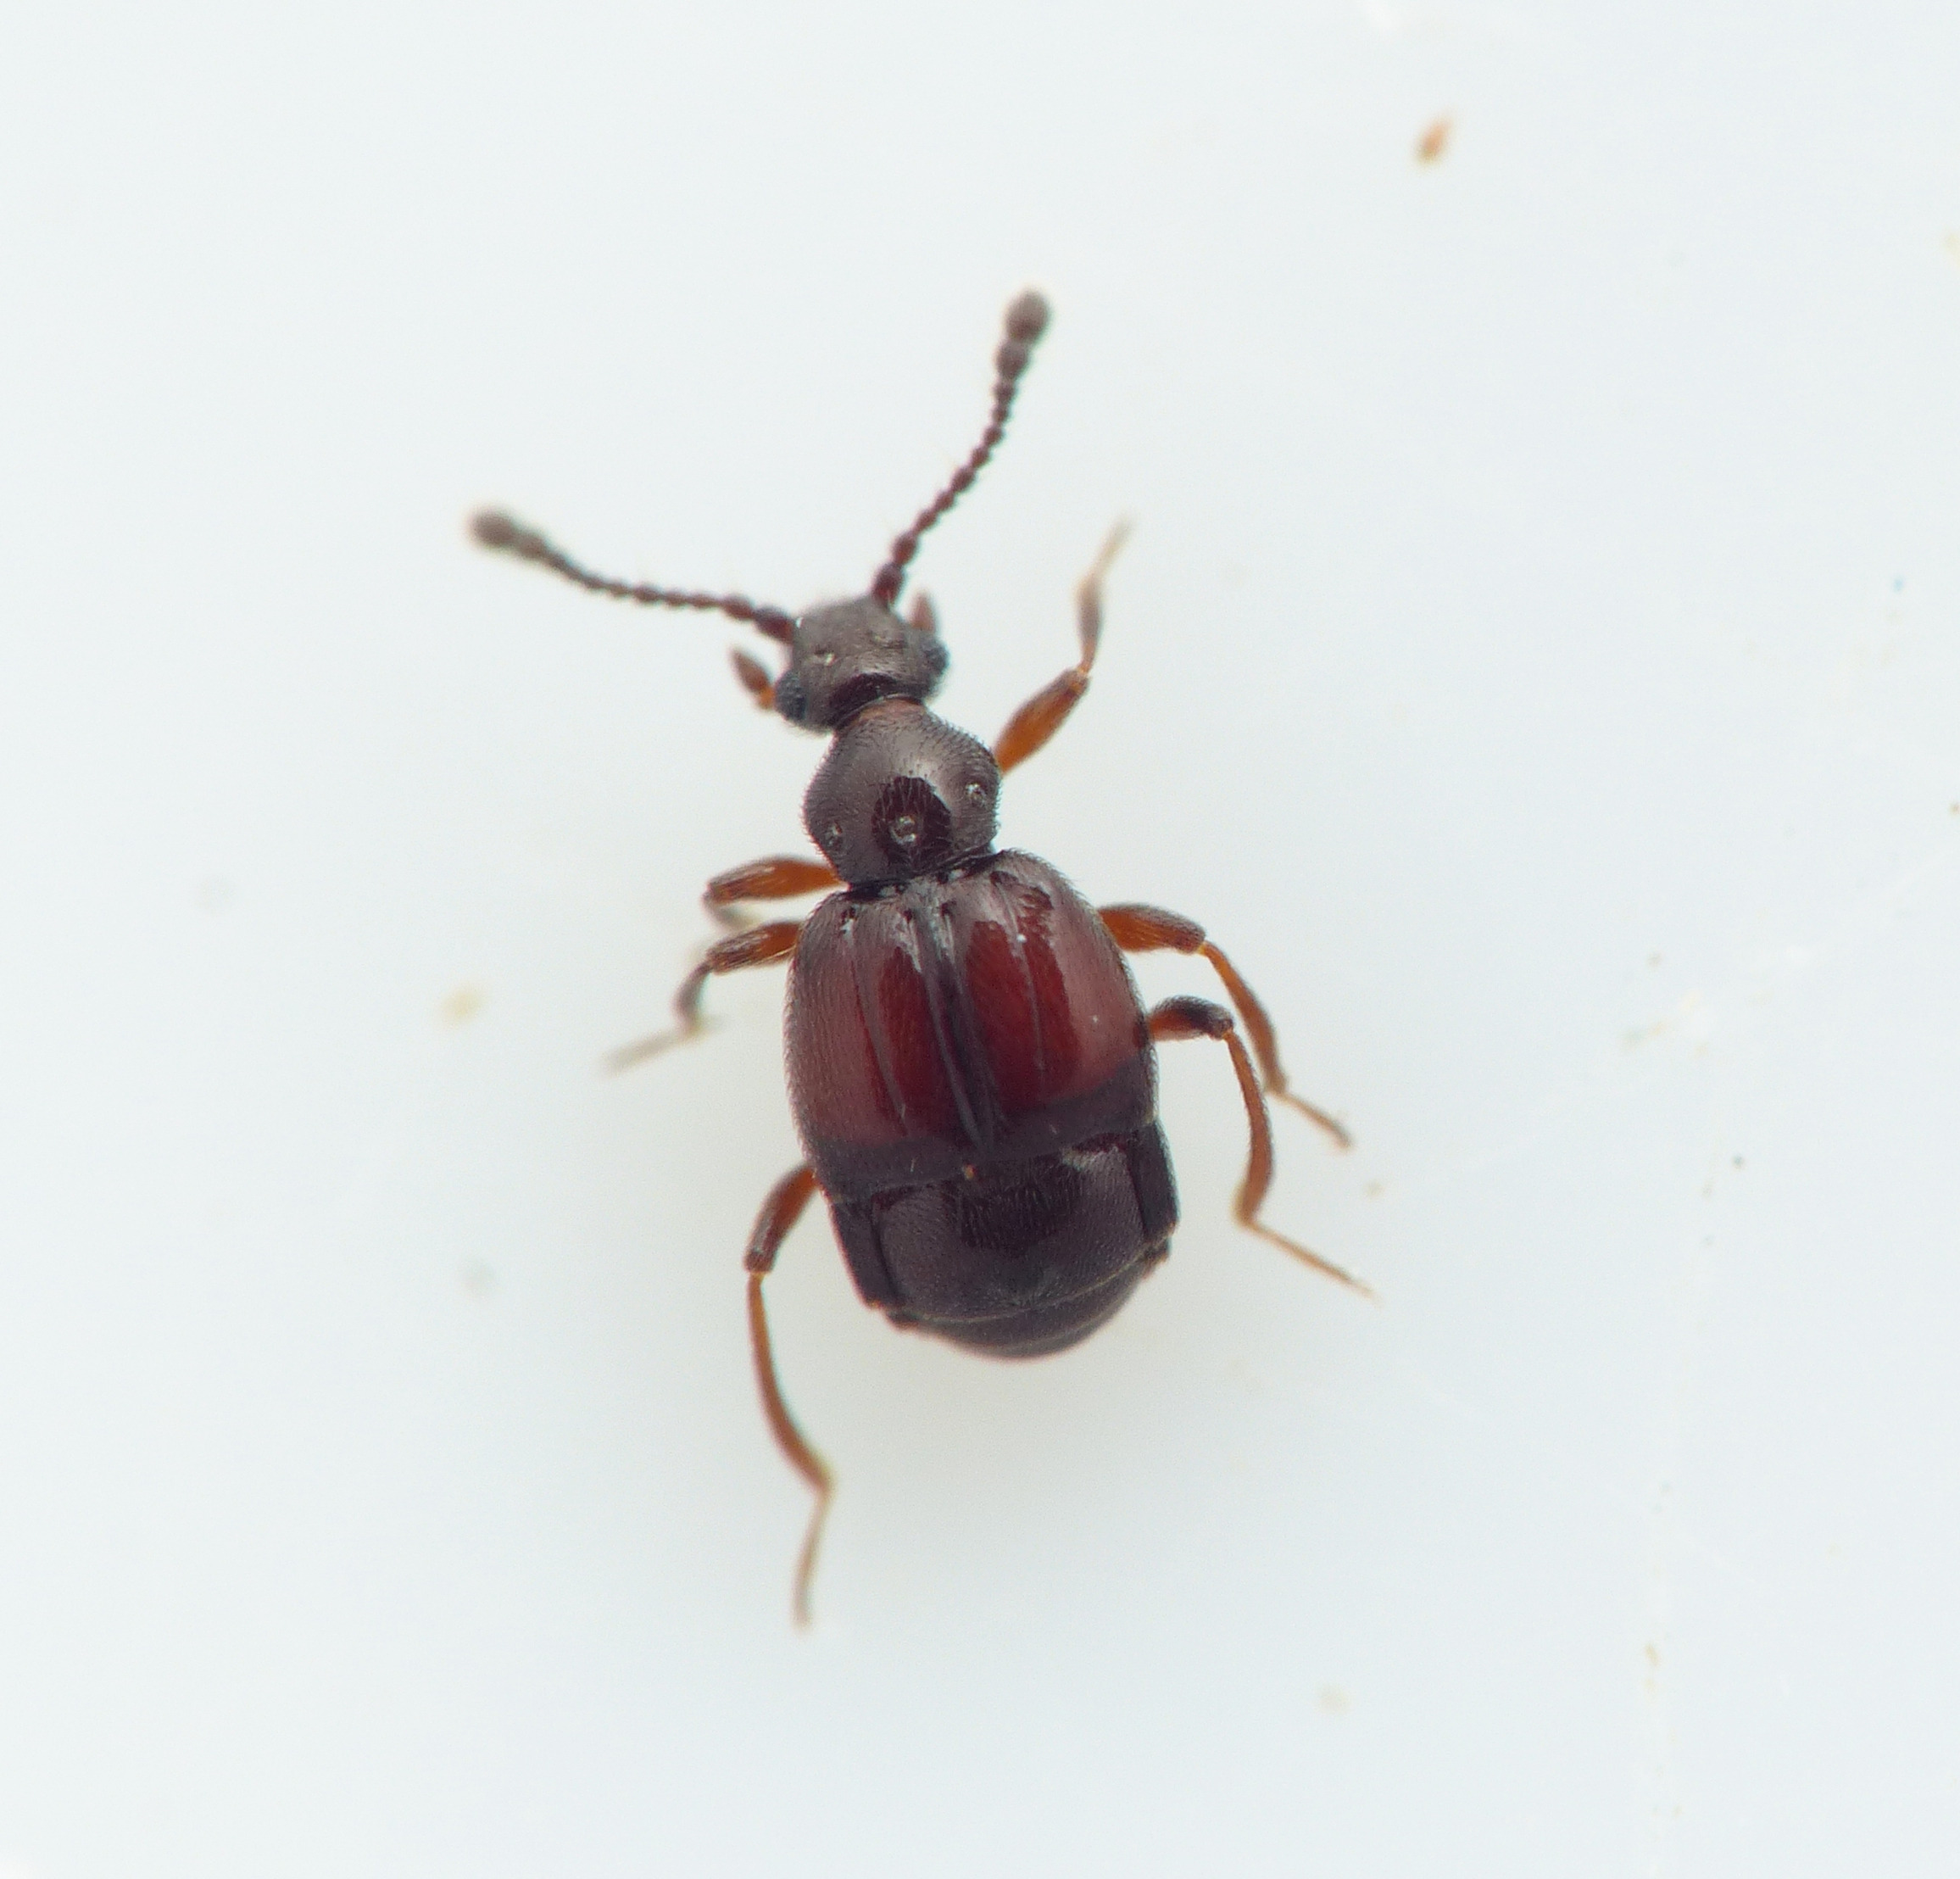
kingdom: Animalia
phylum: Arthropoda
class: Insecta
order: Coleoptera
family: Staphylinidae
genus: Brachygluta
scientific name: Brachygluta helferi
